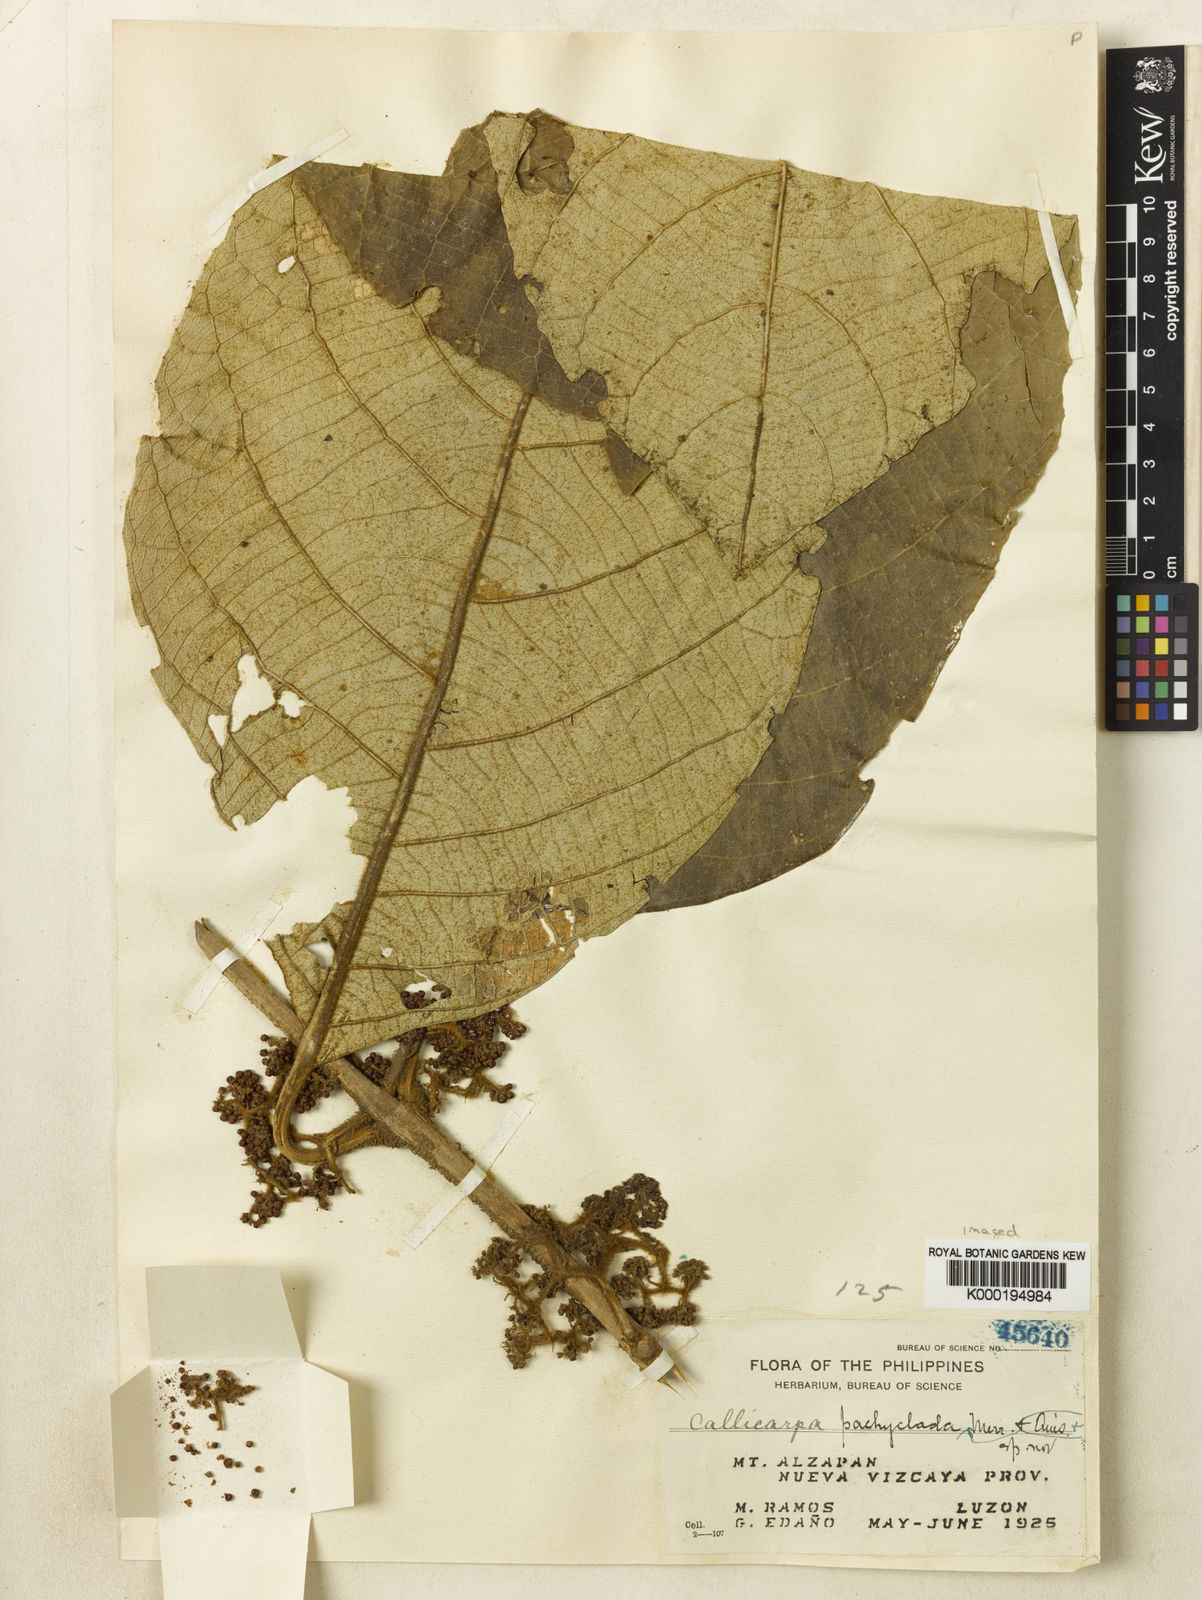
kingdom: Plantae
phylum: Tracheophyta
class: Magnoliopsida
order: Lamiales
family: Lamiaceae
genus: Callicarpa
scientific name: Callicarpa pachyclada
